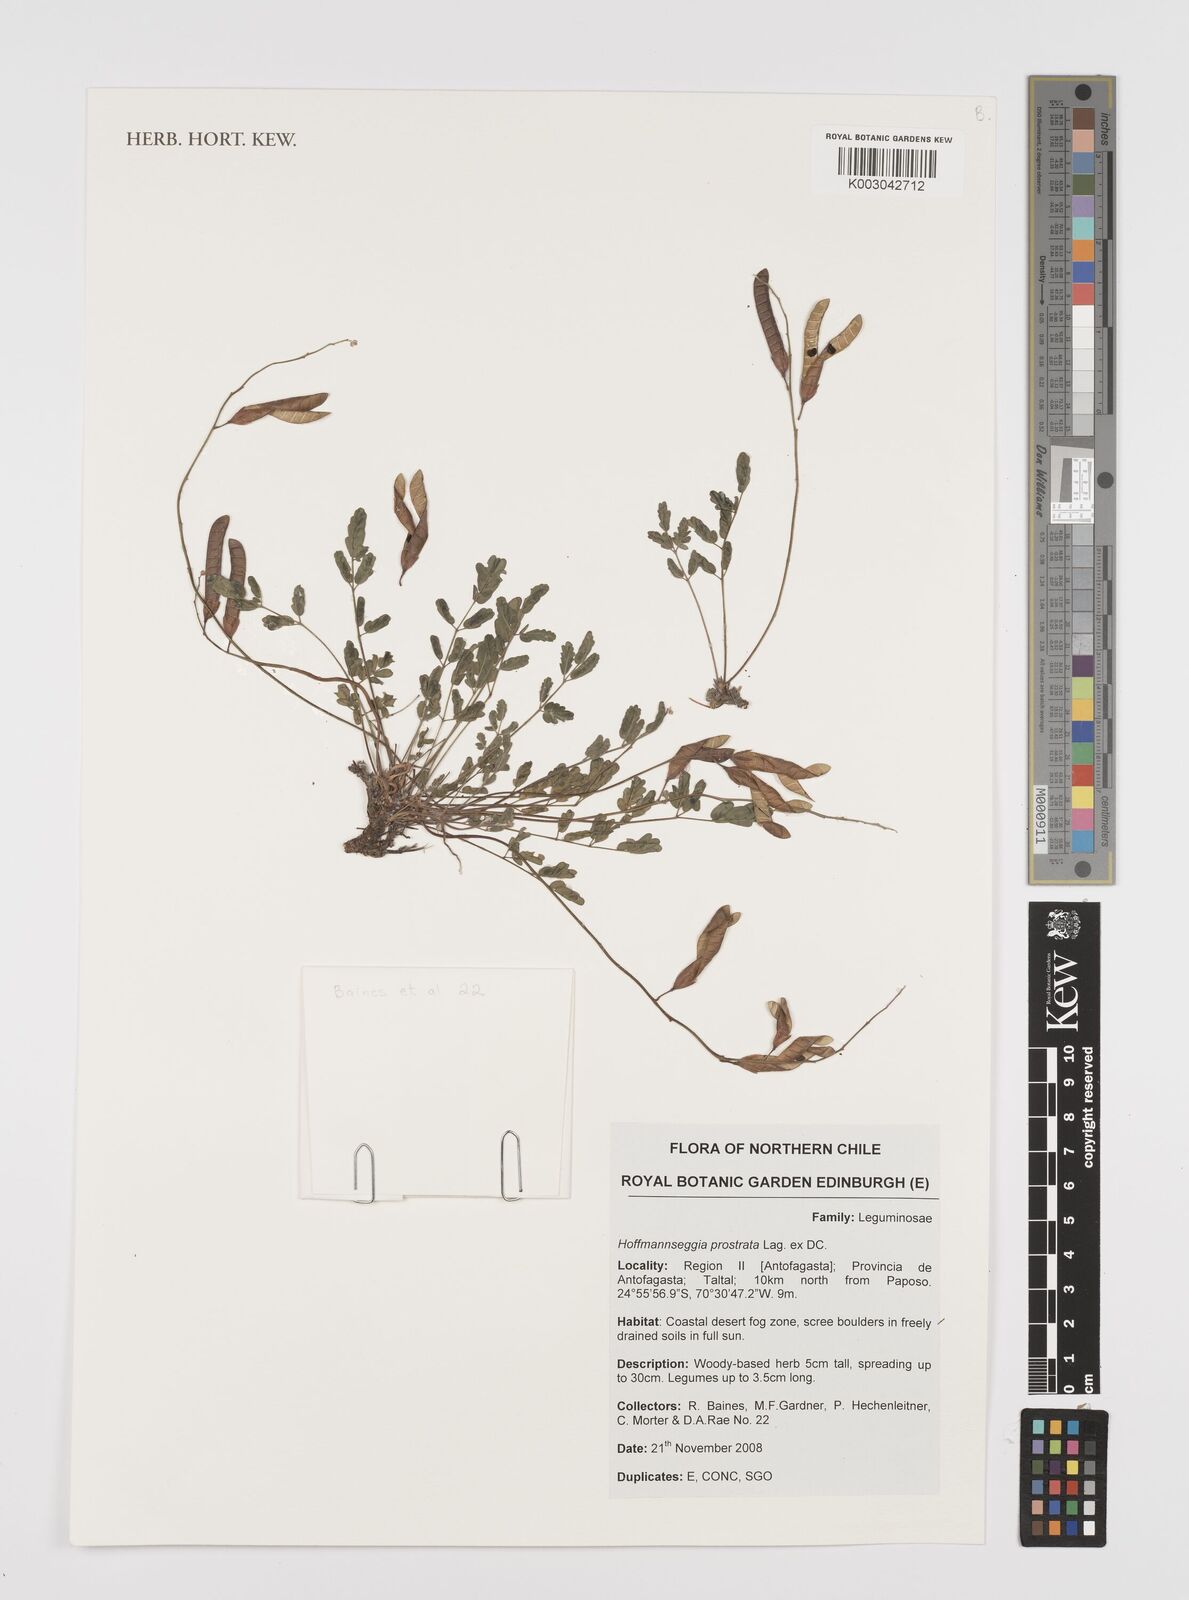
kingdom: Plantae
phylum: Tracheophyta
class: Magnoliopsida
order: Fabales
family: Fabaceae
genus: Hoffmannseggia
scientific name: Hoffmannseggia prostrata
